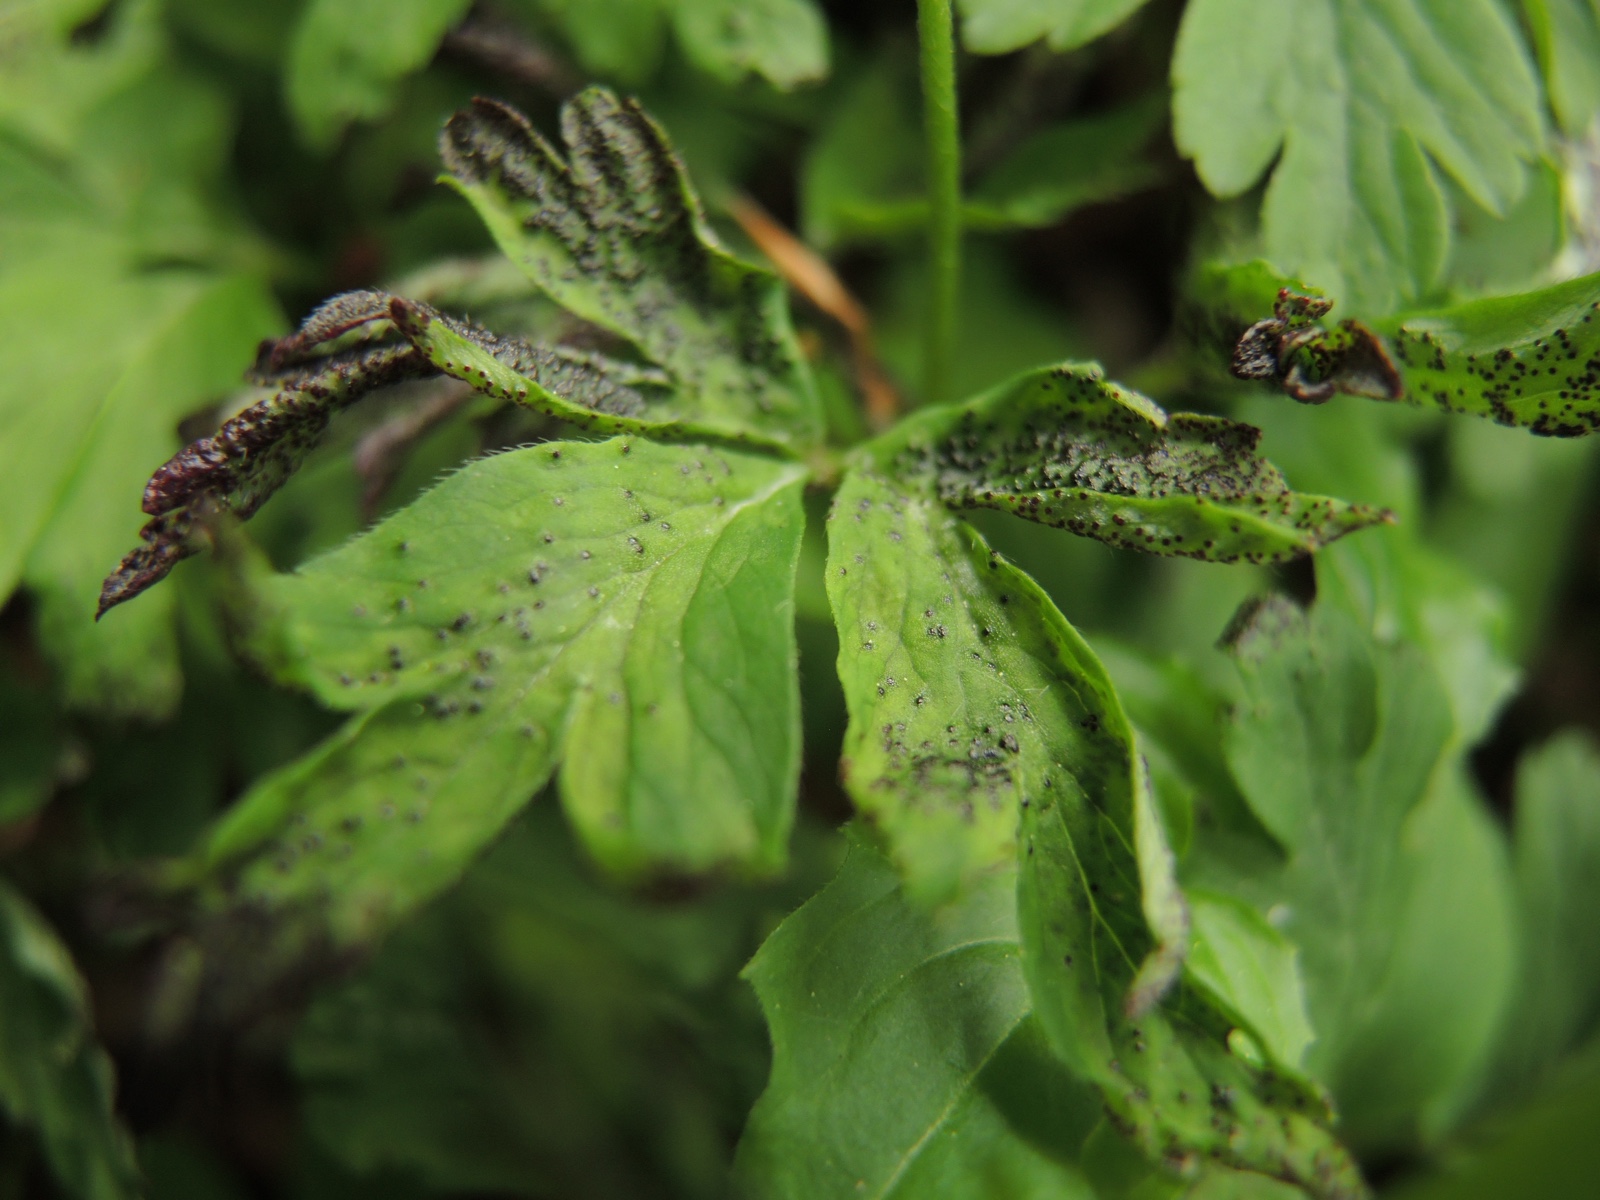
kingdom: Fungi
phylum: Chytridiomycota
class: Chytridiomycetes
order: Chytridiales
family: Synchytriaceae
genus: Synchytrium
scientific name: Synchytrium anemones
